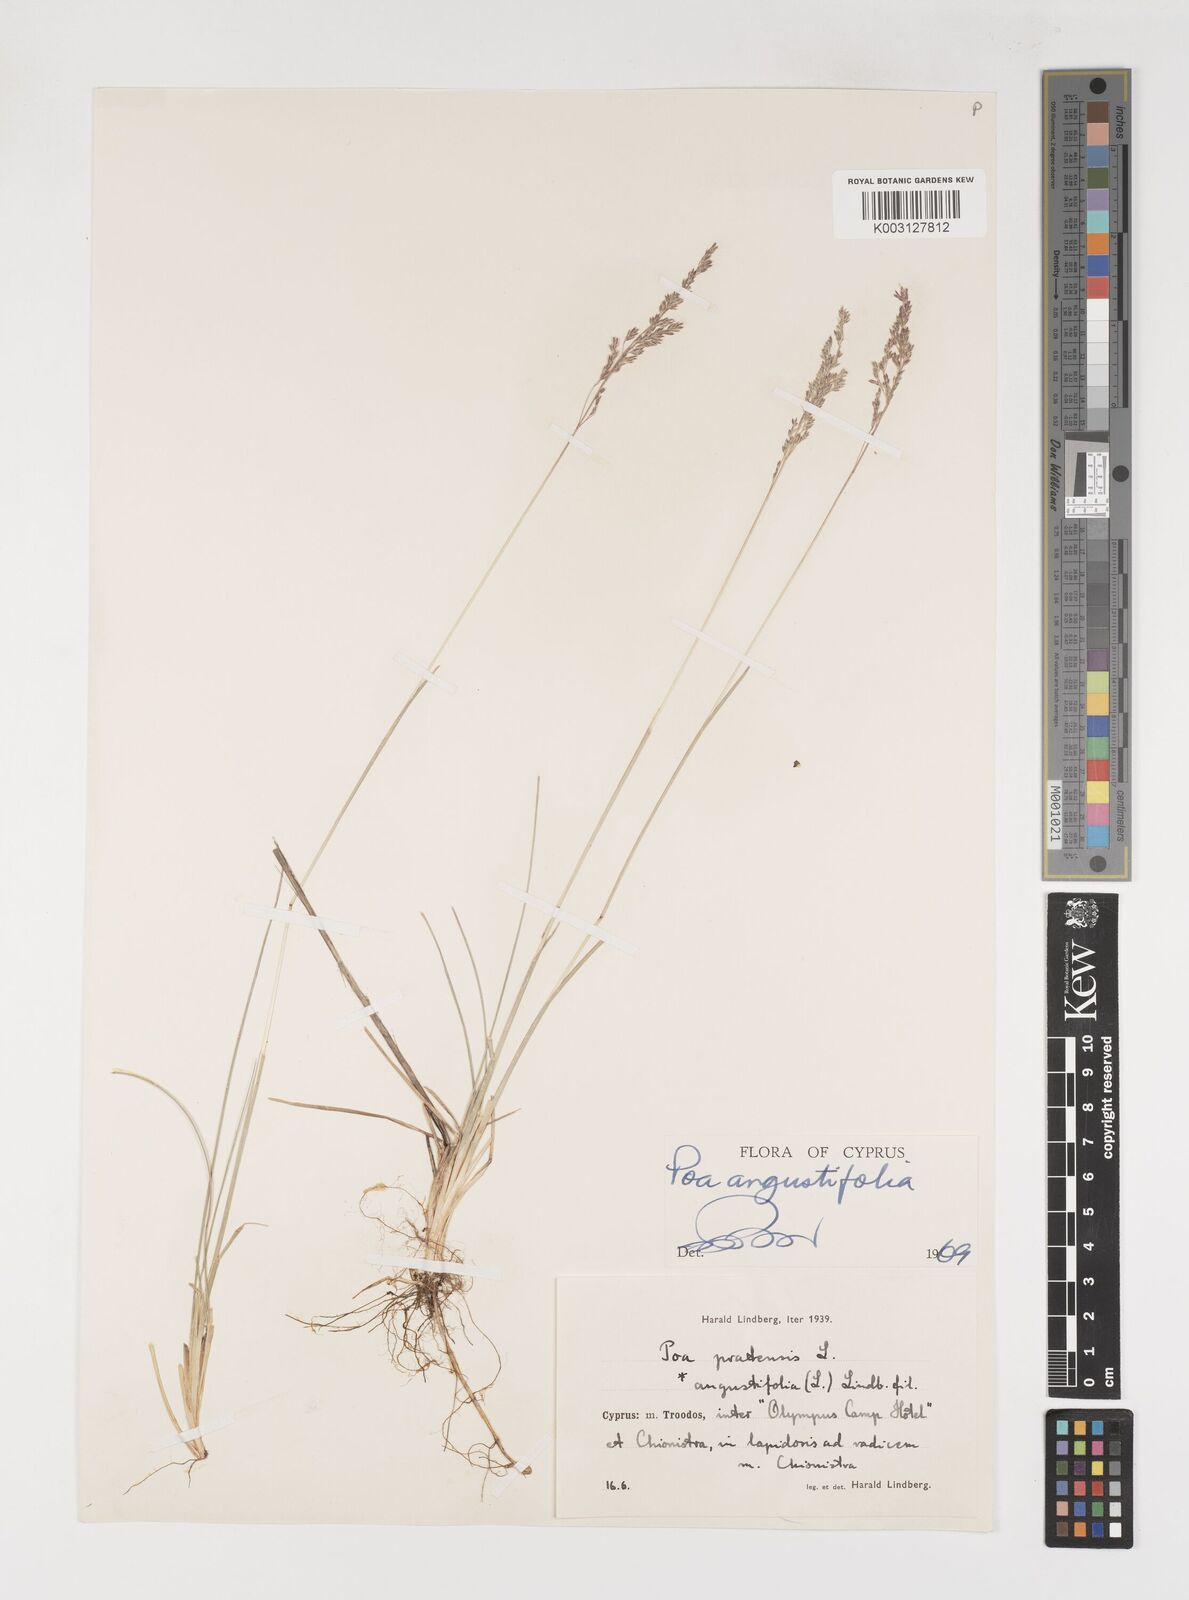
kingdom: Plantae
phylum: Tracheophyta
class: Liliopsida
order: Poales
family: Poaceae
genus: Poa
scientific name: Poa angustifolia
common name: Narrow-leaved meadow-grass
